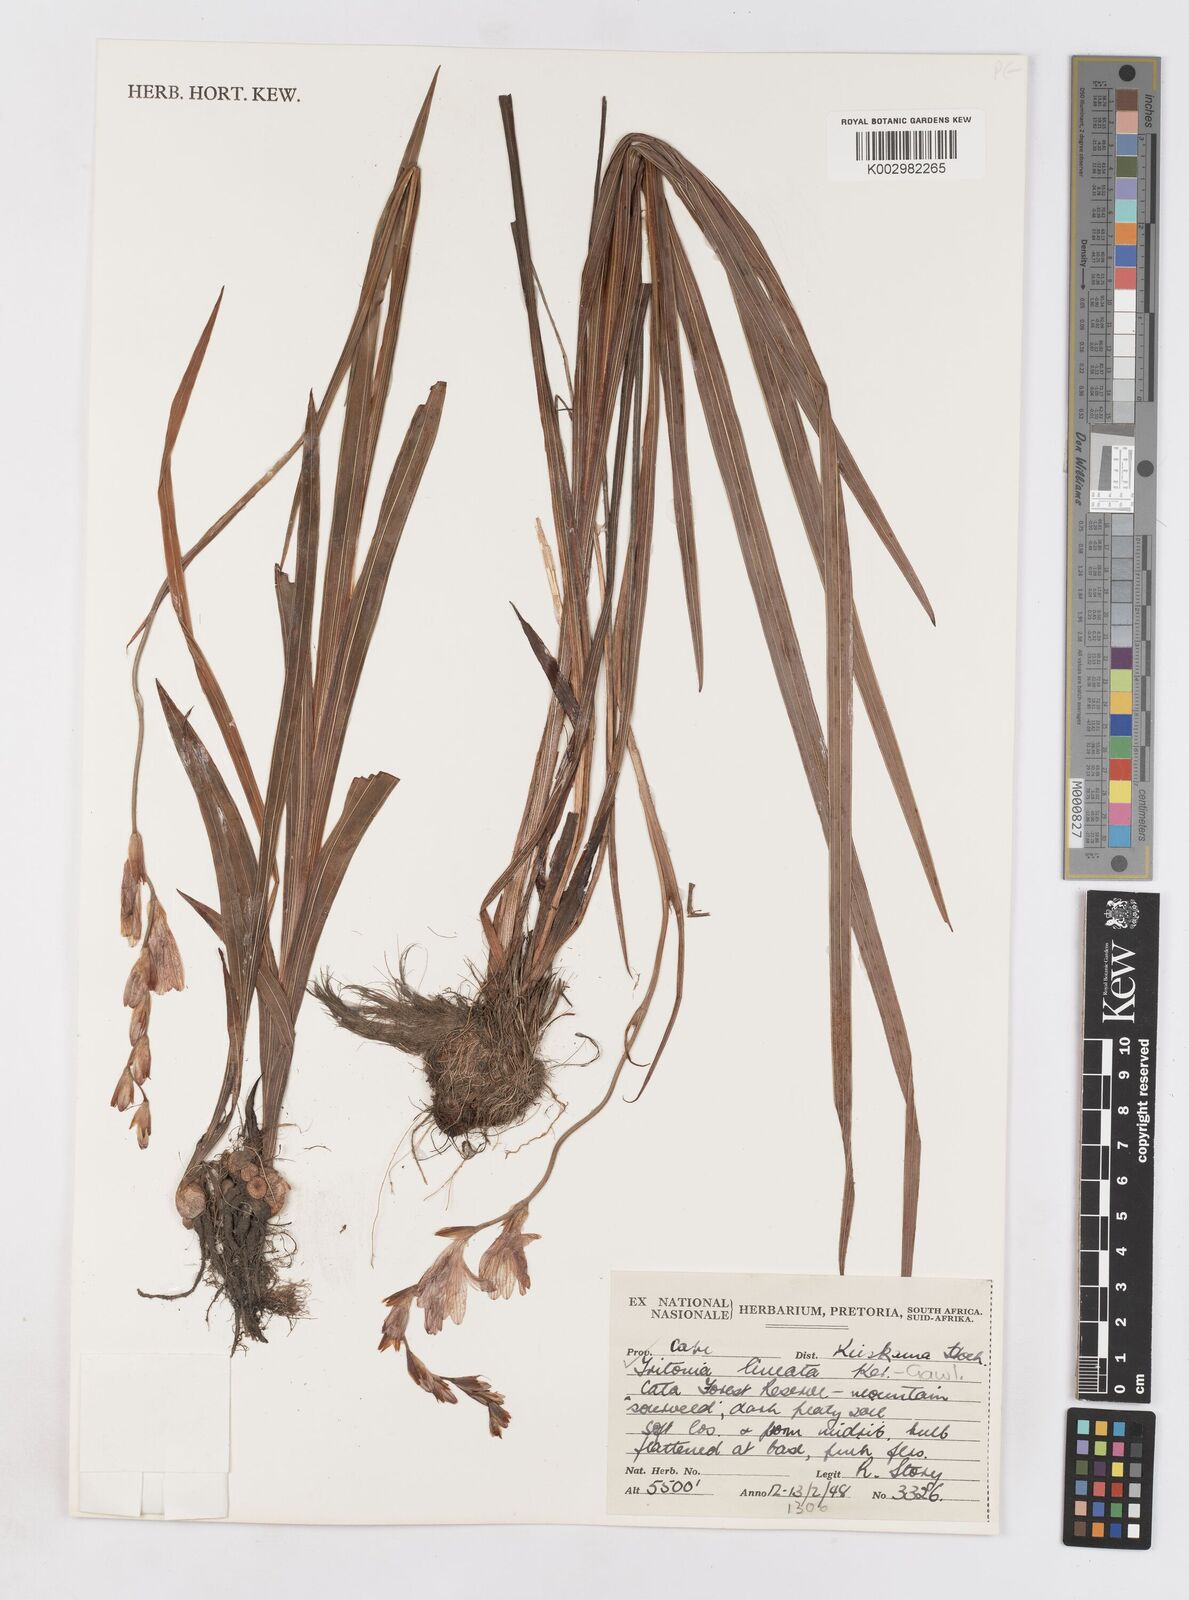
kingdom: Plantae
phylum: Tracheophyta
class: Liliopsida
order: Asparagales
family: Iridaceae
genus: Tritonia
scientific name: Tritonia gladiolaris
